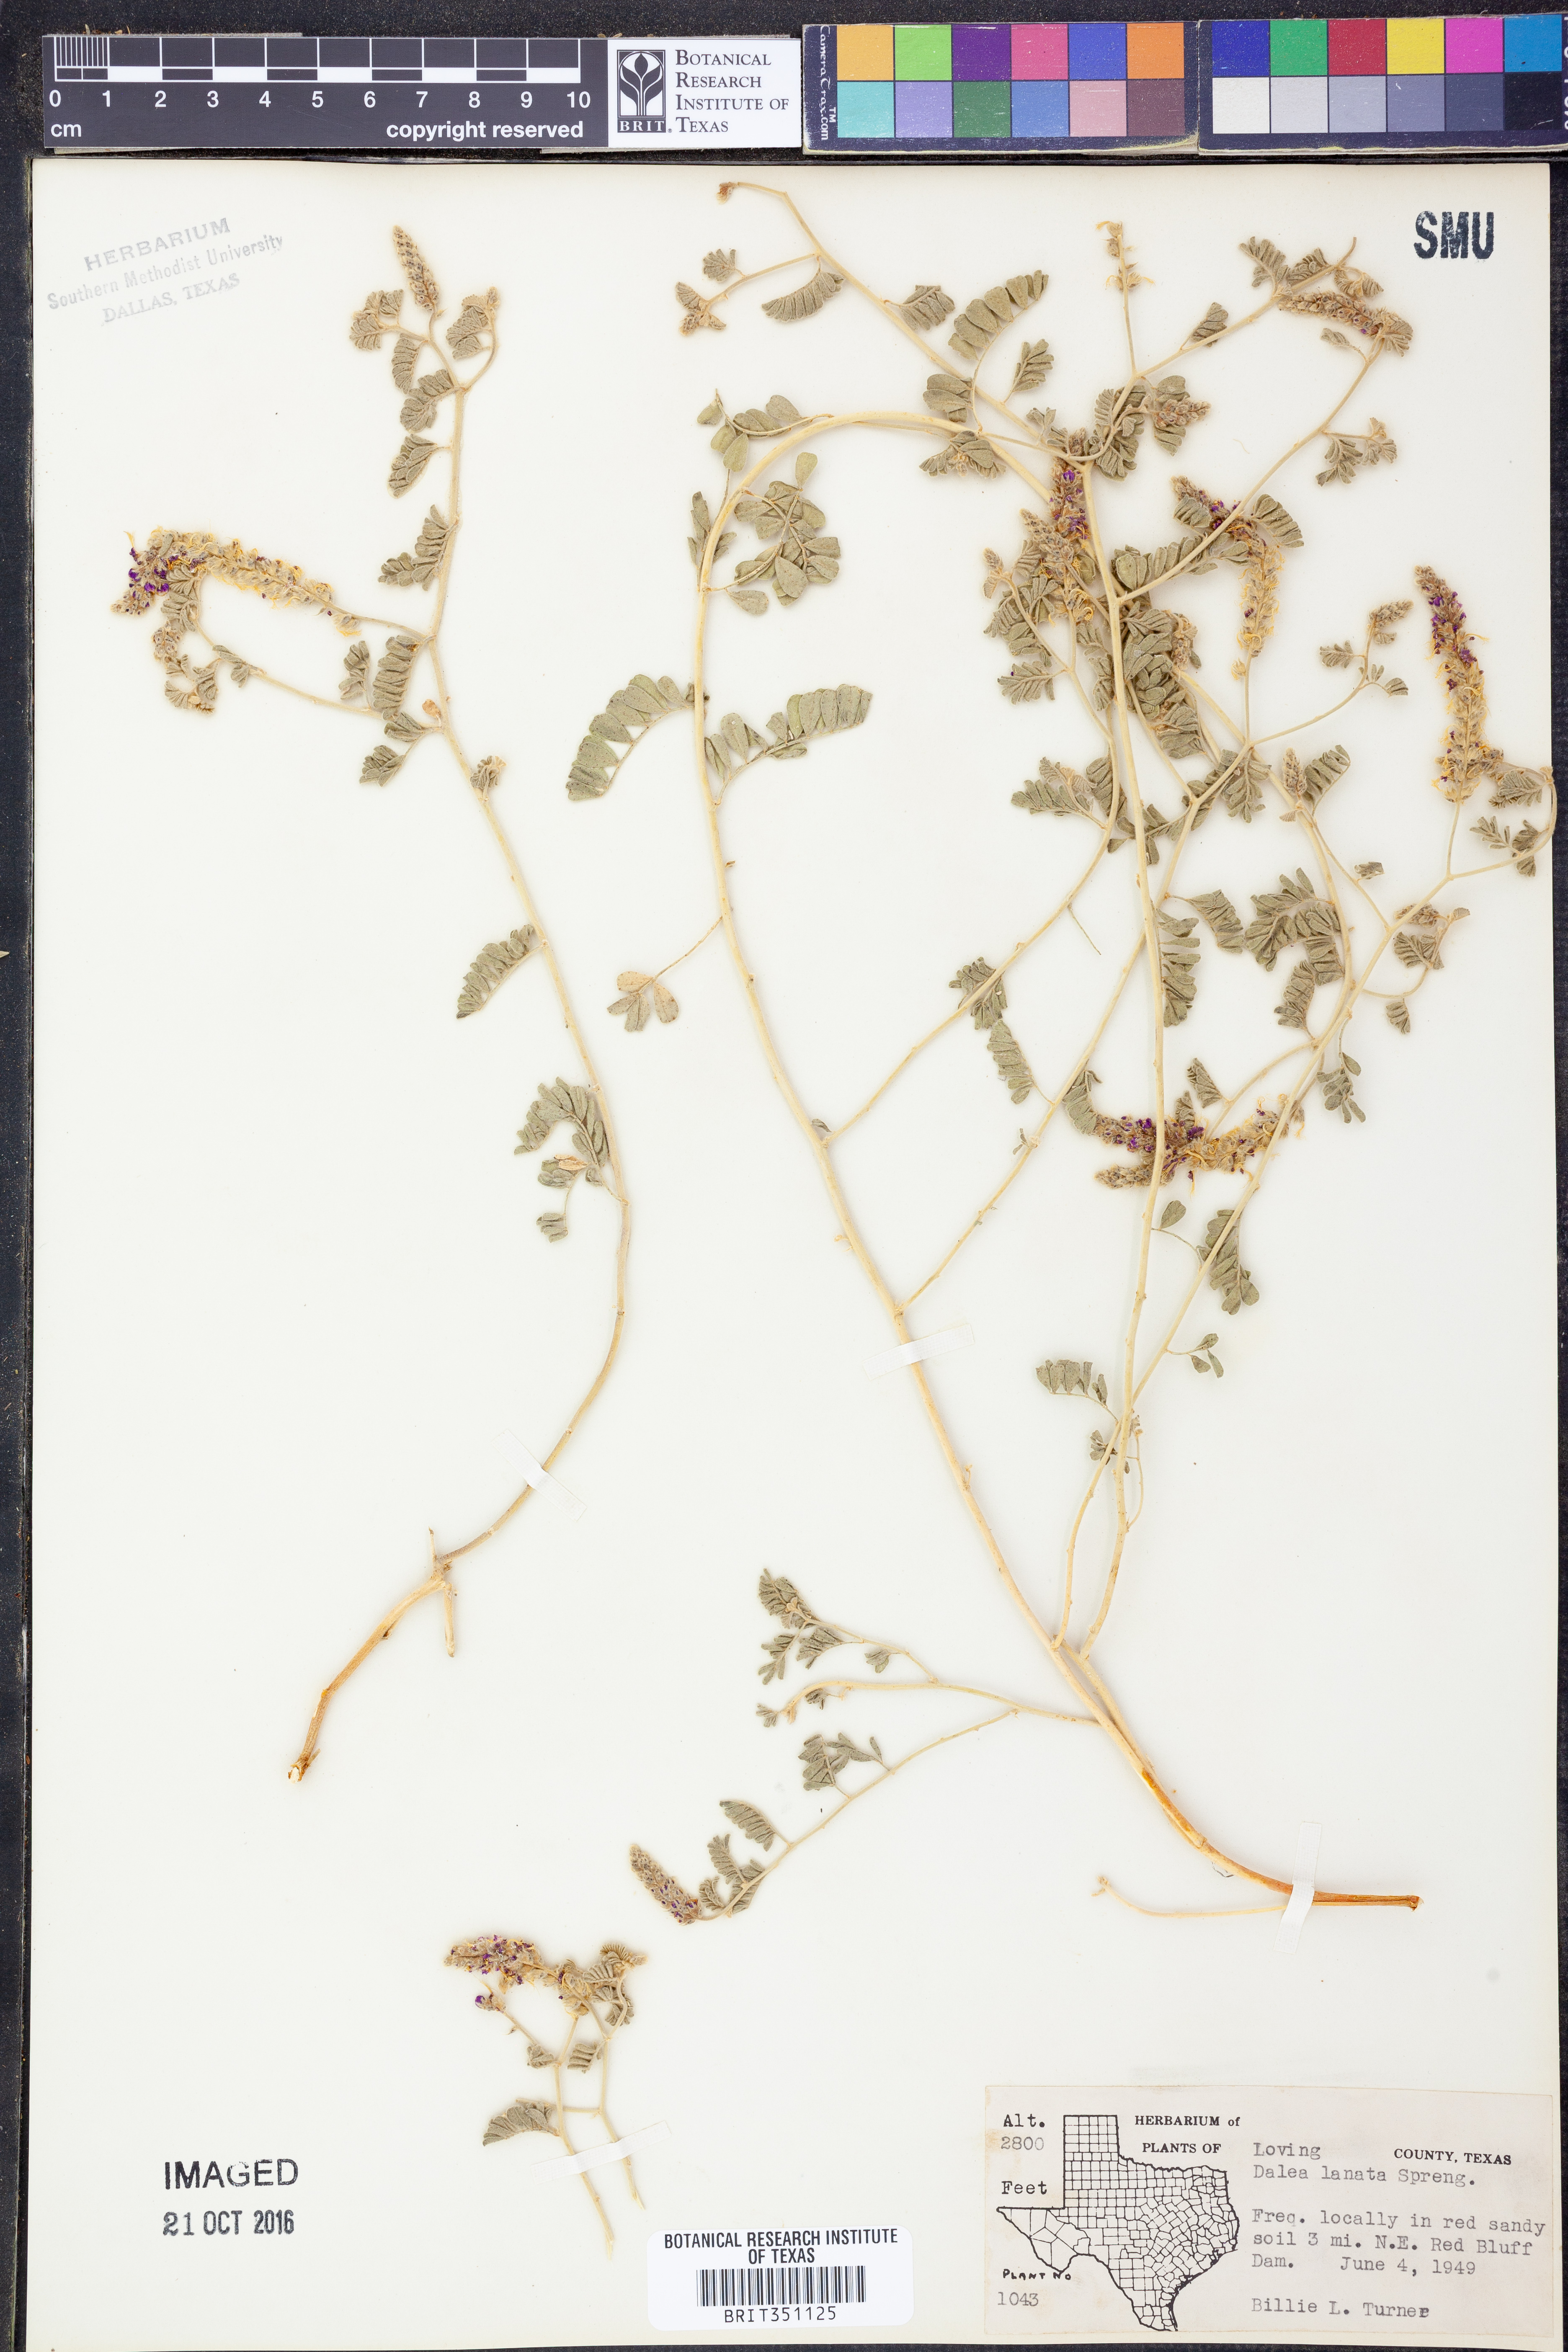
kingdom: Plantae
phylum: Tracheophyta
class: Magnoliopsida
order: Fabales
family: Fabaceae
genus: Dalea
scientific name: Dalea lanata
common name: Woolly dalea
